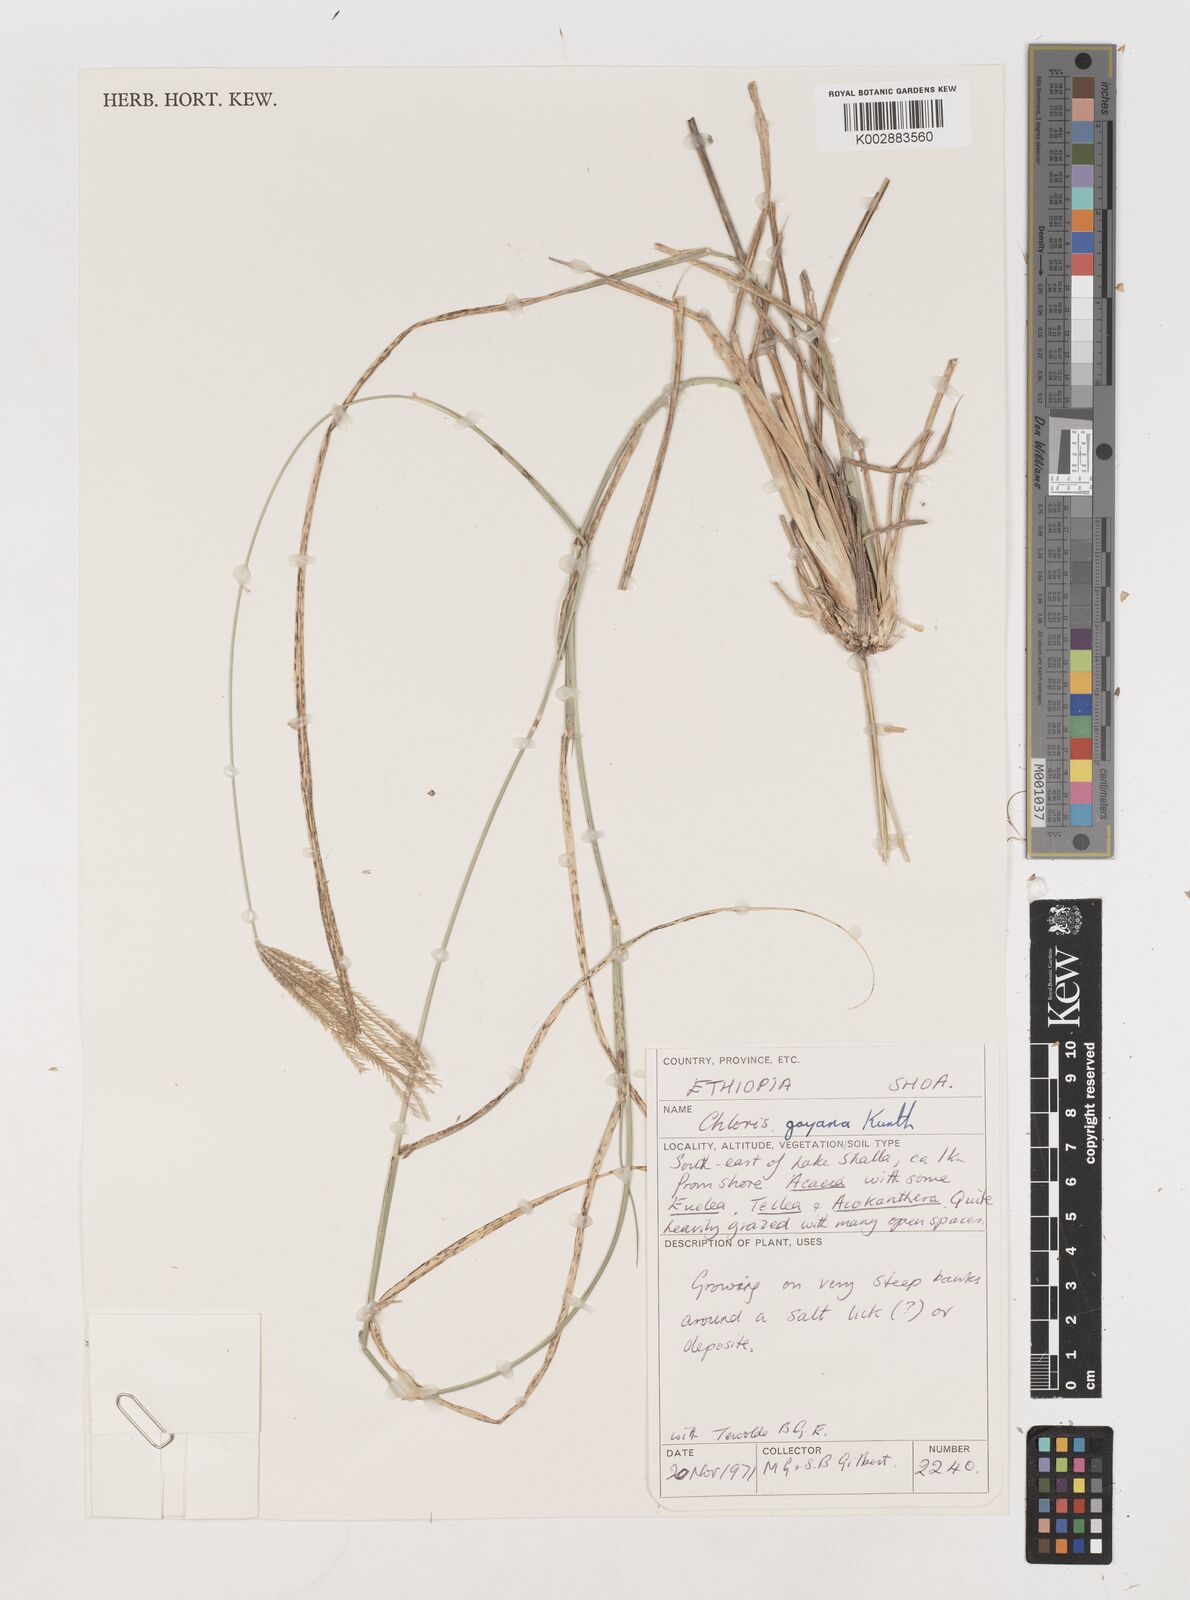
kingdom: Plantae
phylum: Tracheophyta
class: Liliopsida
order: Poales
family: Poaceae
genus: Chloris
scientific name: Chloris gayana
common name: Rhodes grass
